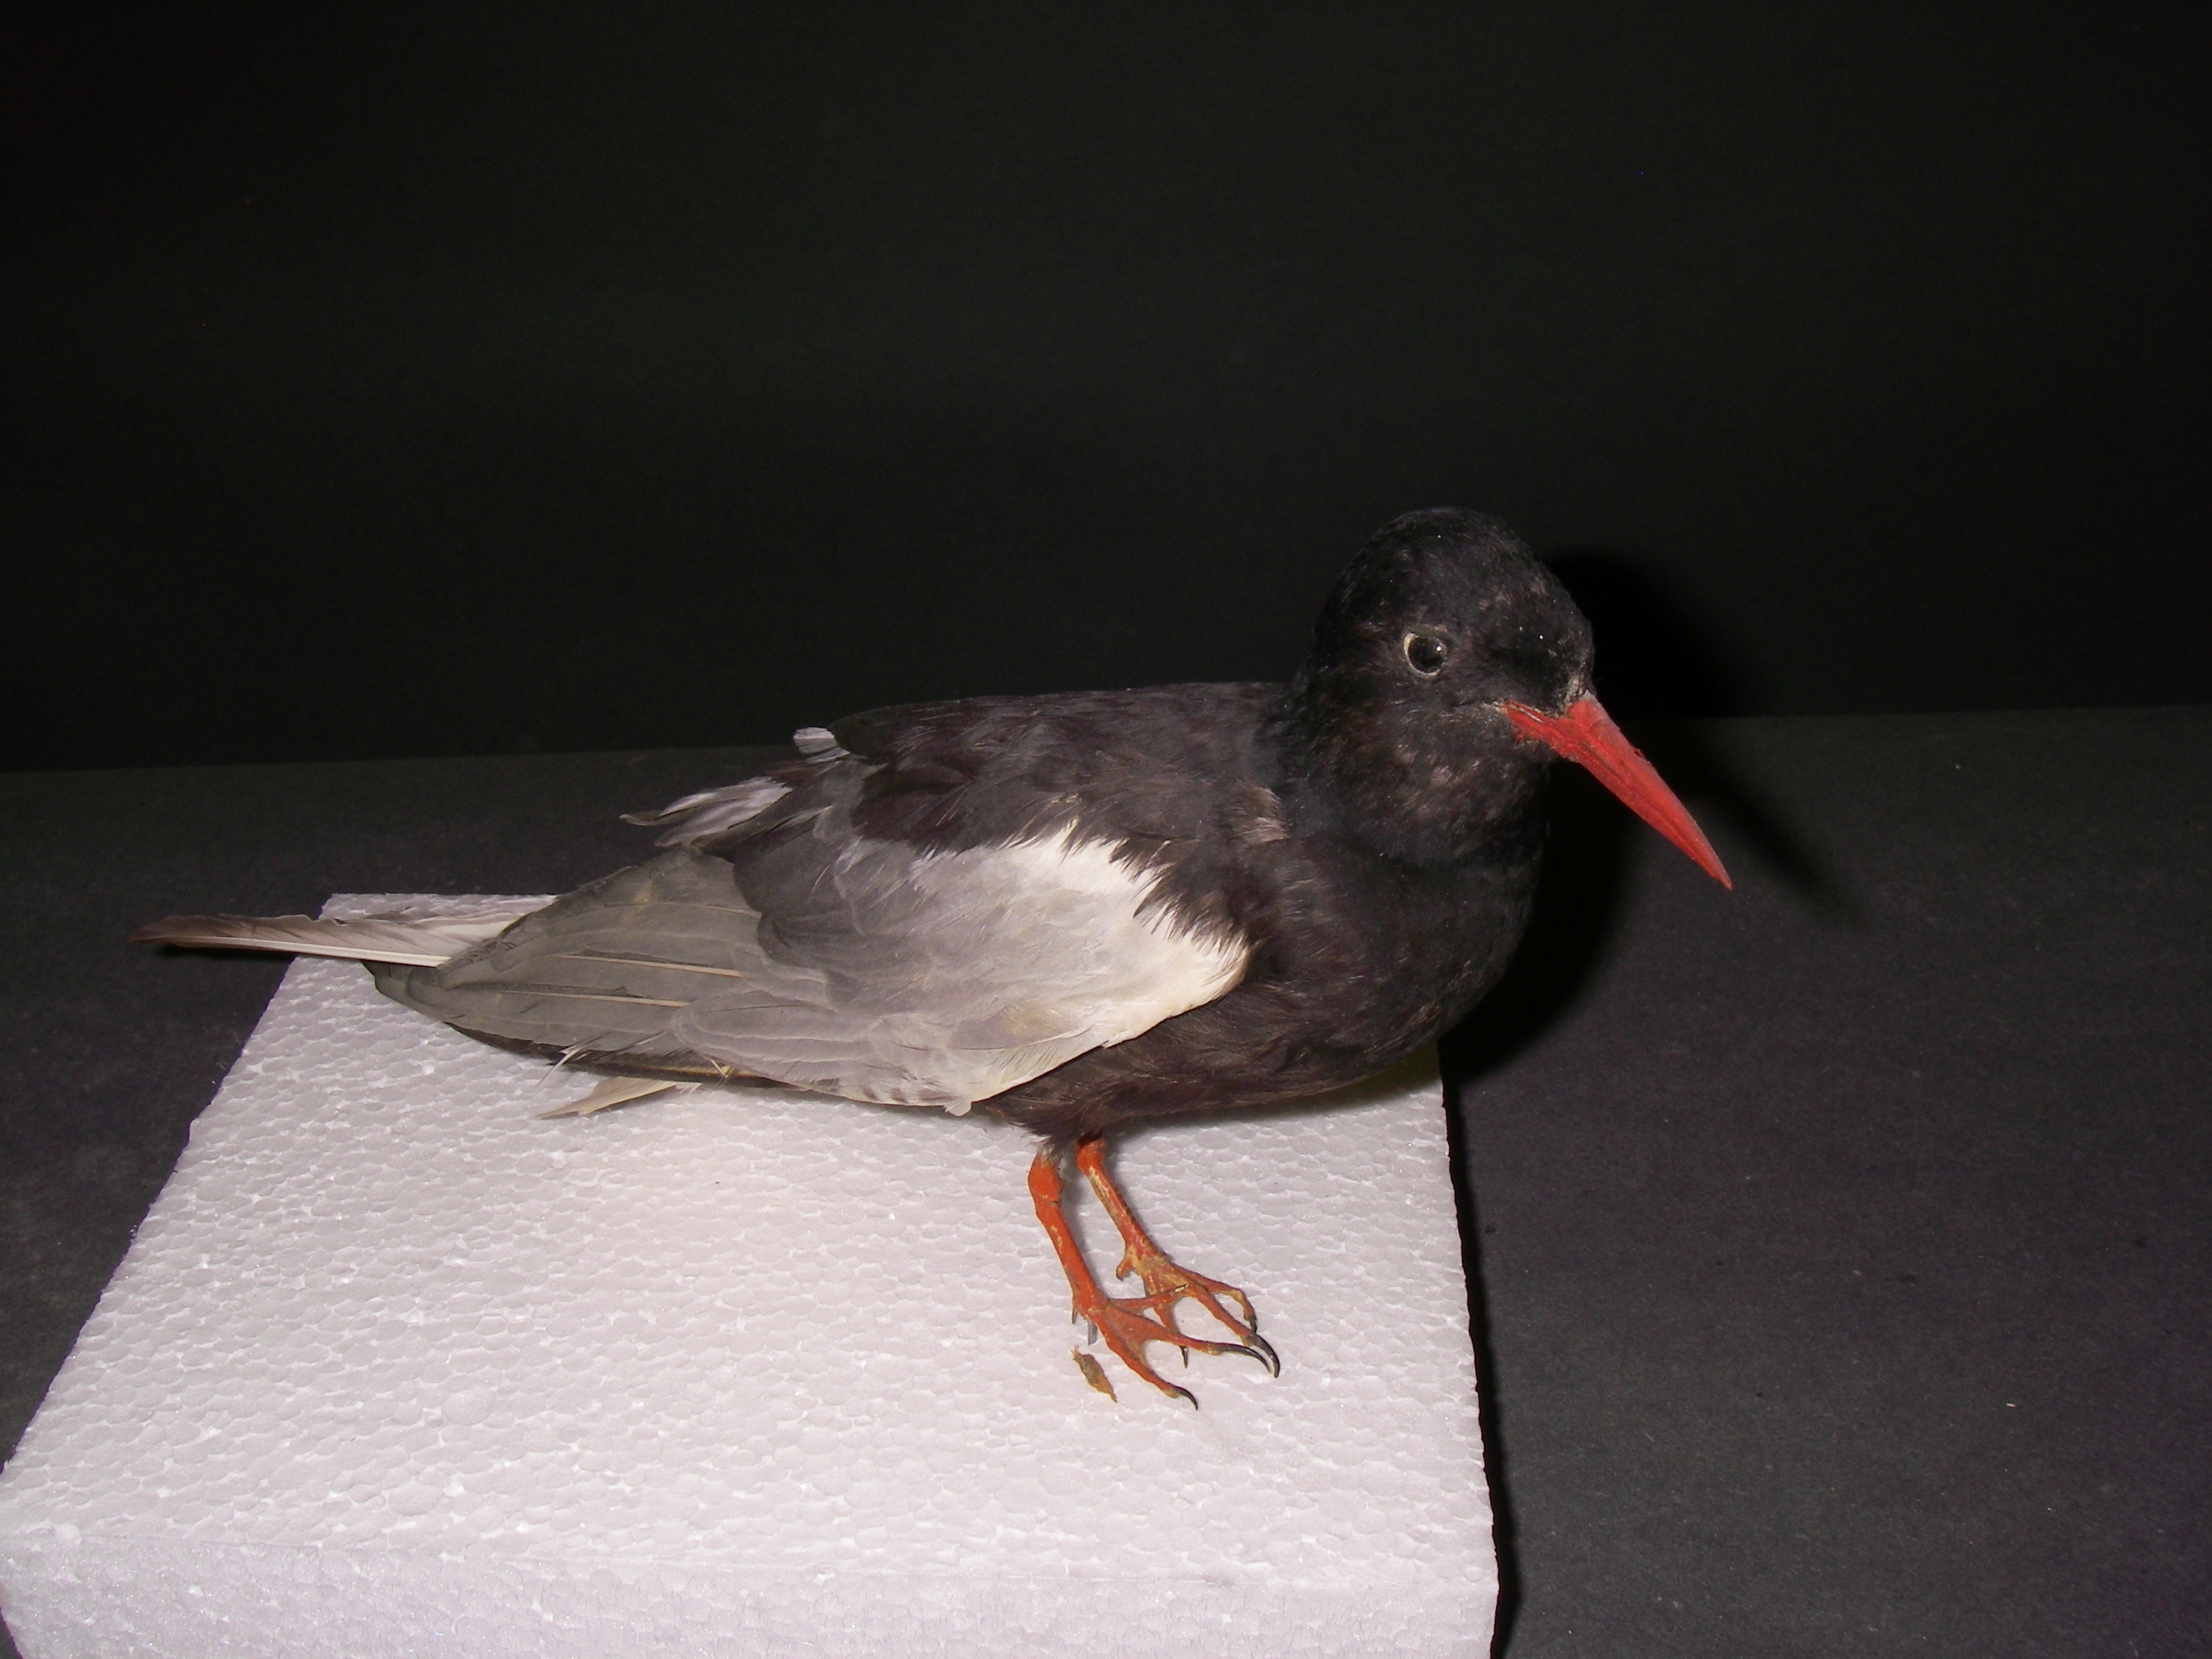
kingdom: Animalia
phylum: Chordata
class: Aves
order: Charadriiformes
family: Laridae
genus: Chlidonias
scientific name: Chlidonias leucopterus
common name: White-winged tern
